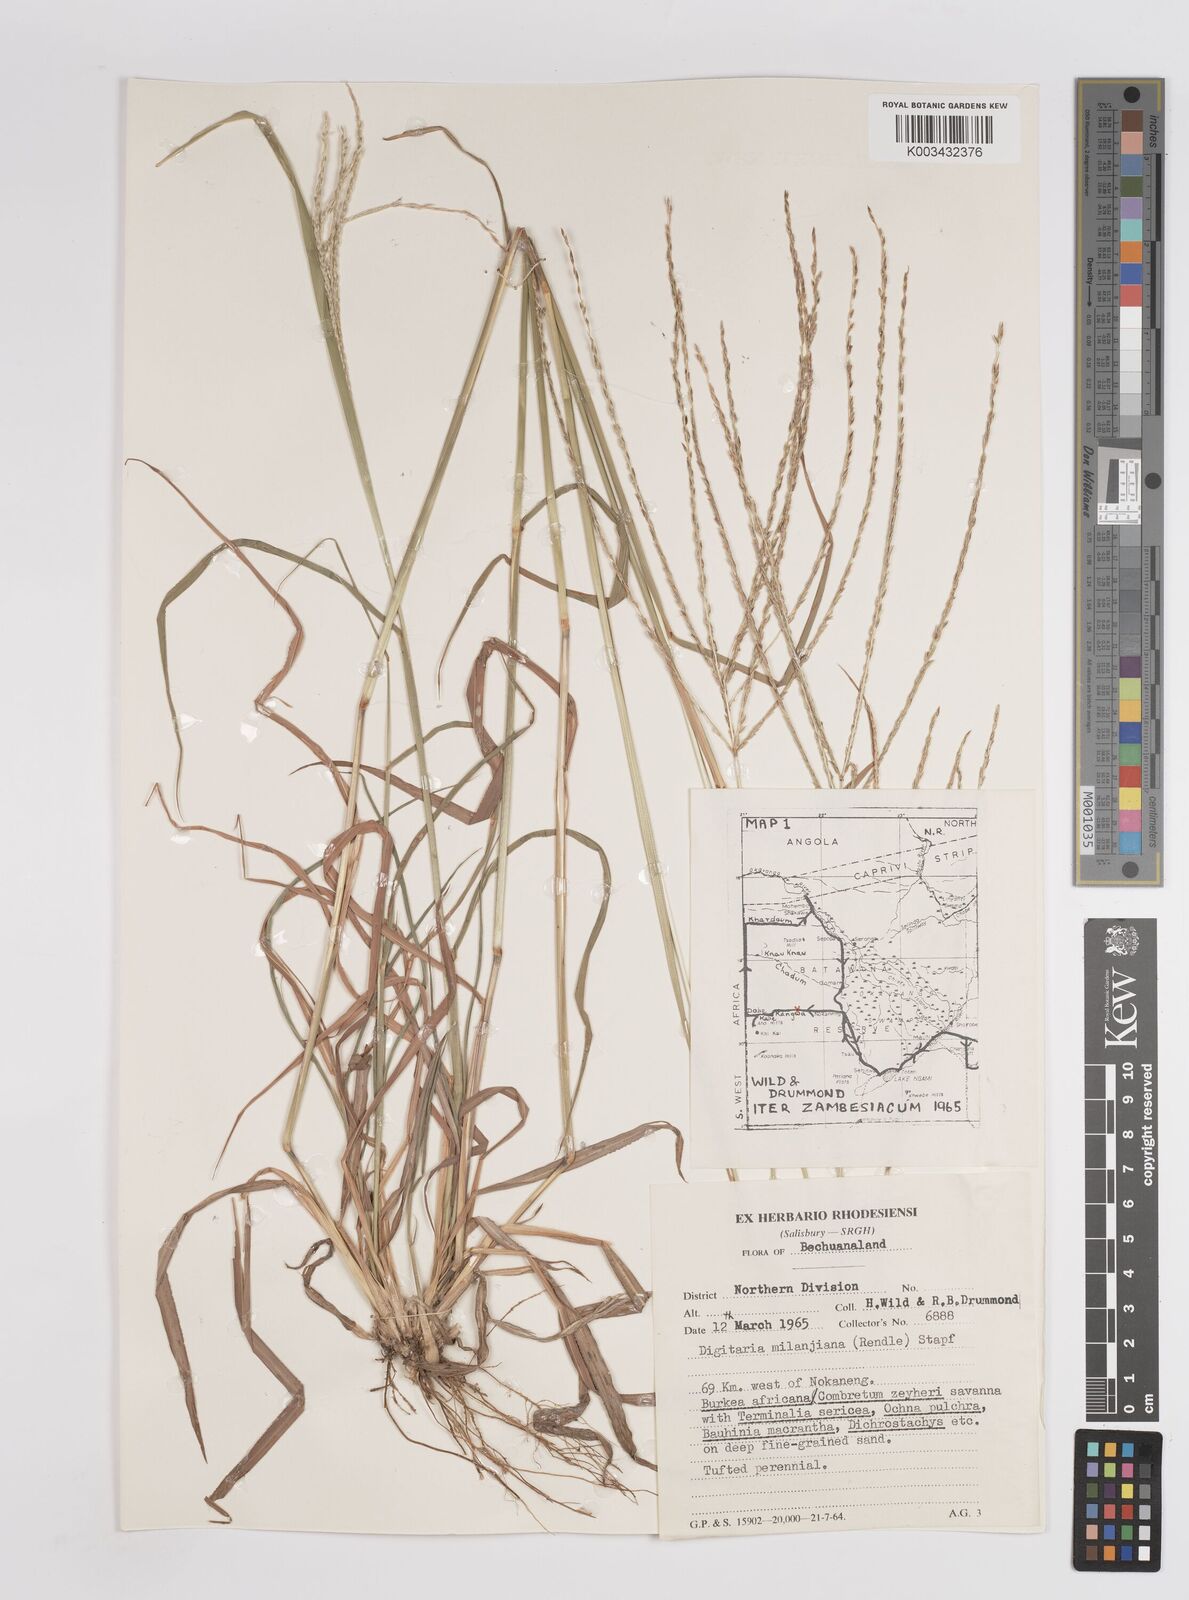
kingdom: Plantae
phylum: Tracheophyta
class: Liliopsida
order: Poales
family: Poaceae
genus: Digitaria
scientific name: Digitaria eriantha
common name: Digitgrass
